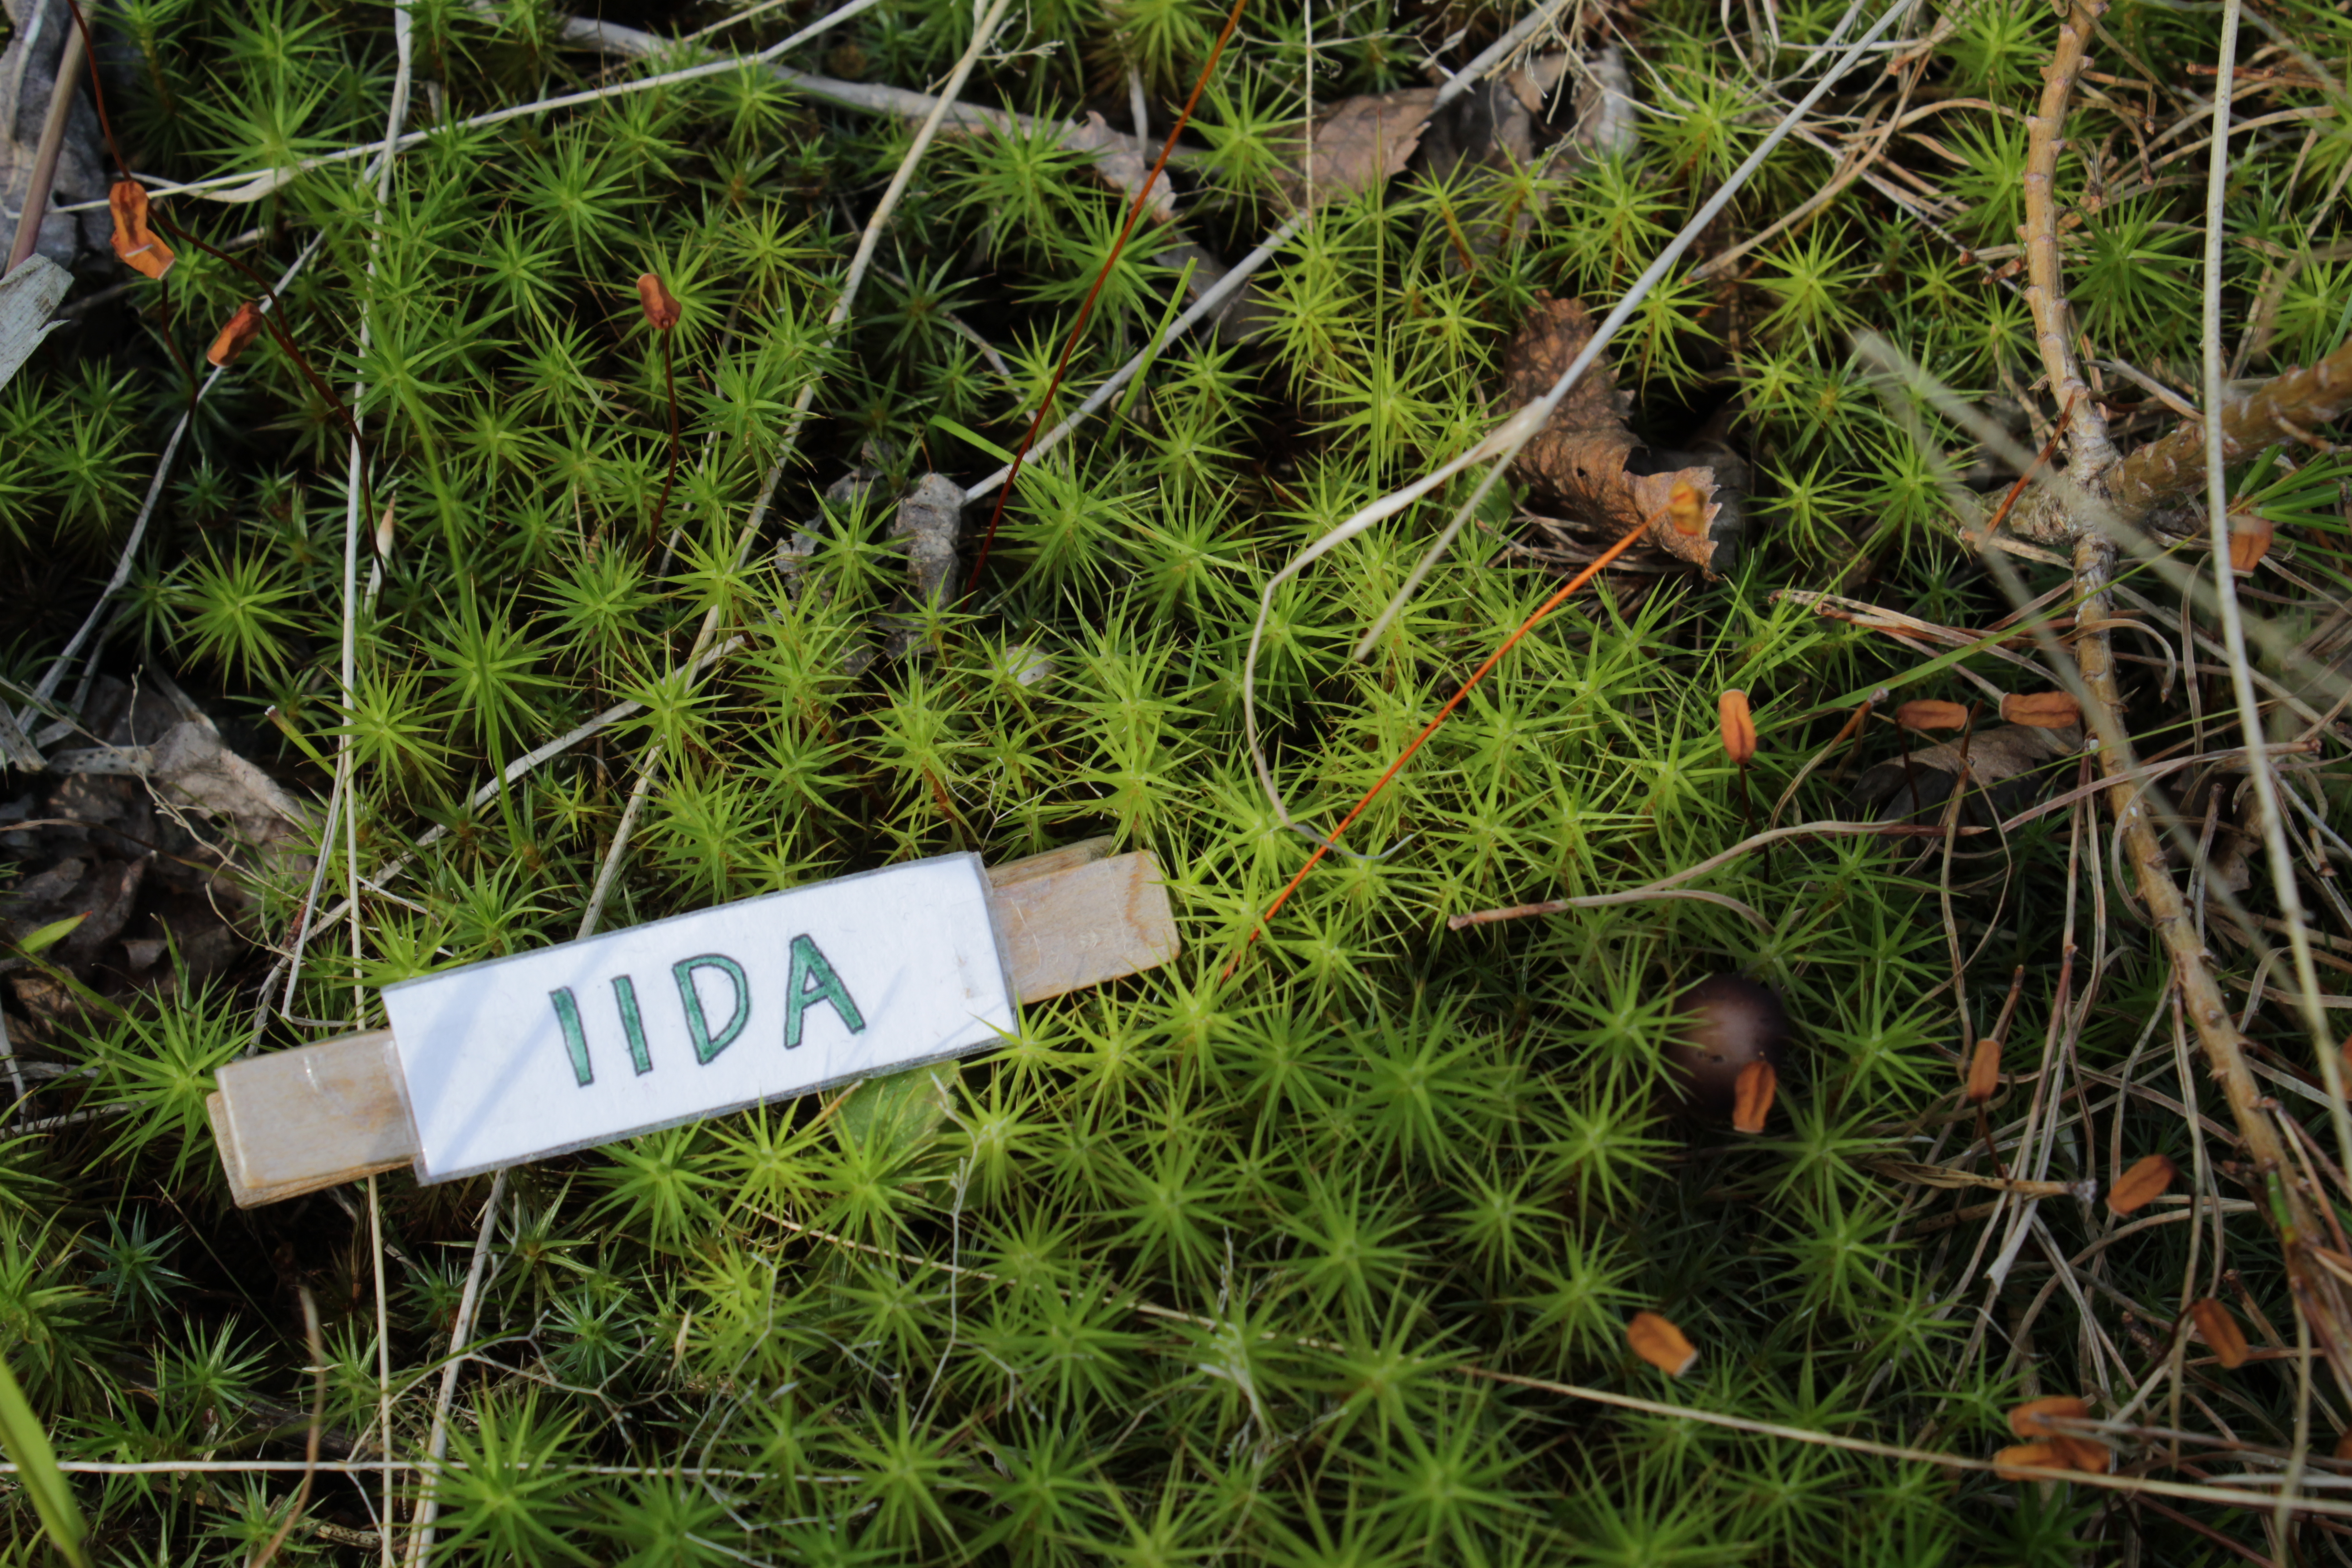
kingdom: Plantae
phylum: Bryophyta
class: Polytrichopsida
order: Polytrichales
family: Polytrichaceae
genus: Polytrichum
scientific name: Polytrichum juniperinum
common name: Juniper haircap moss
